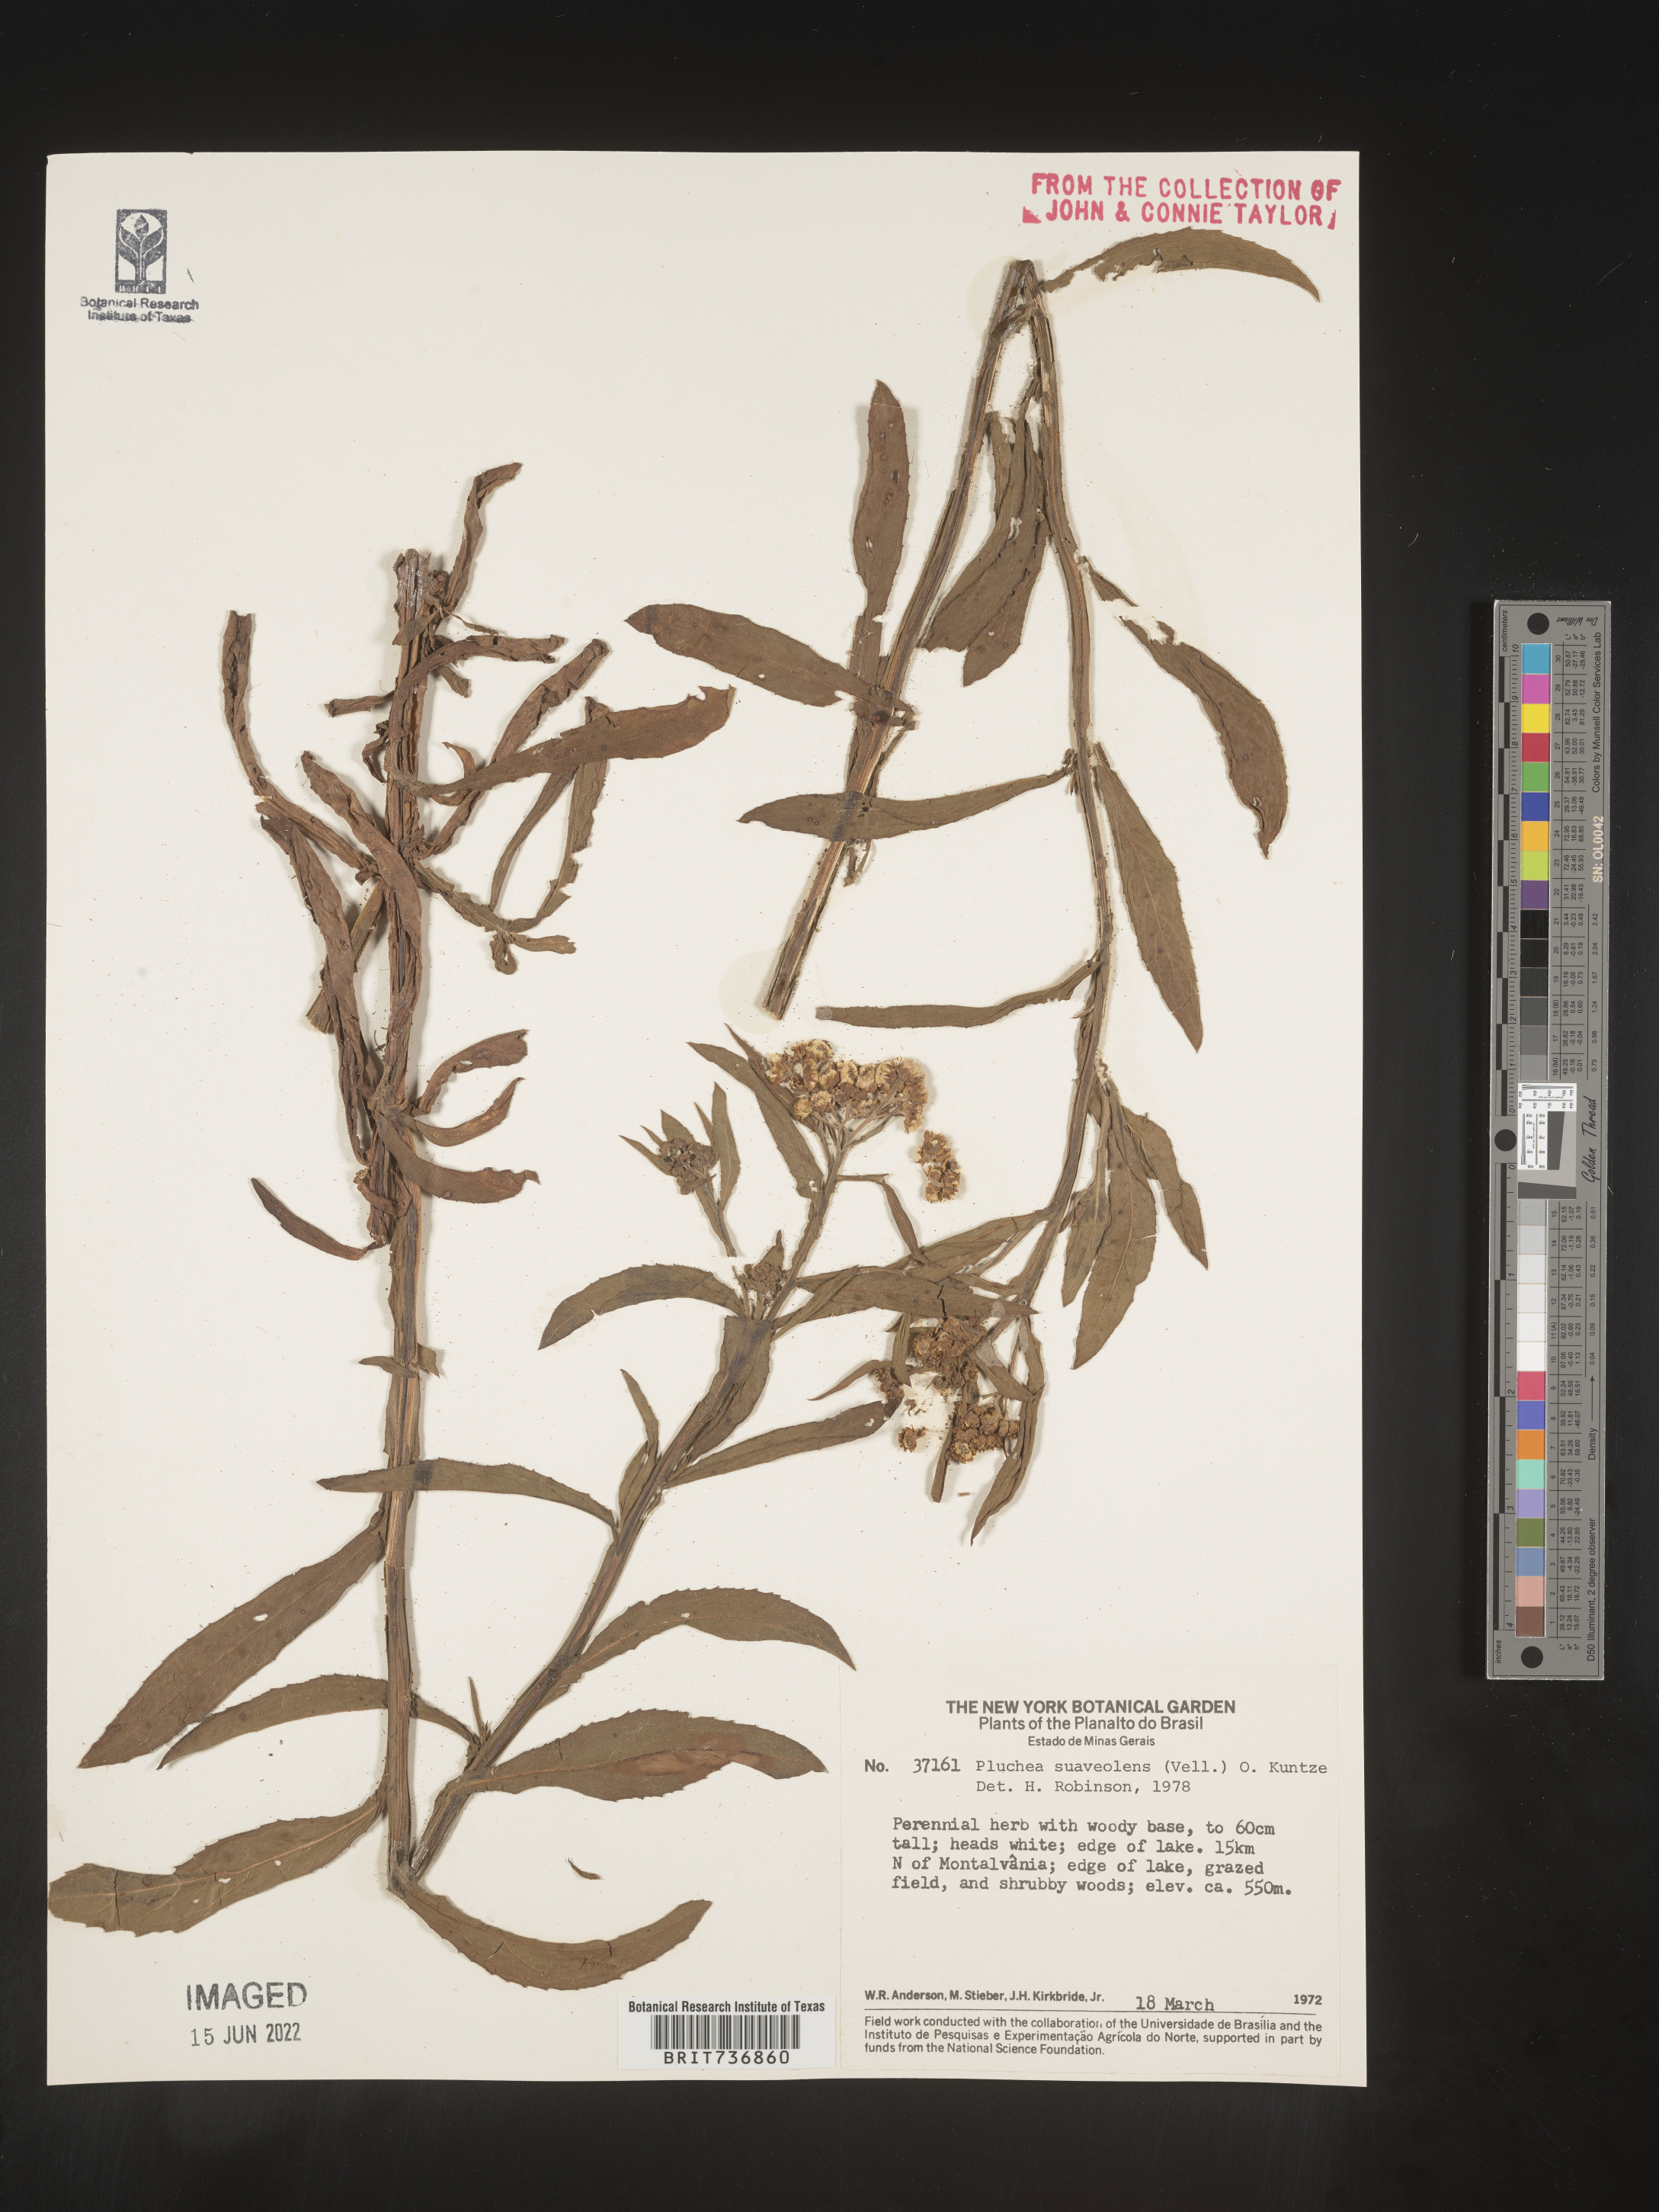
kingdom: Plantae
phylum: Tracheophyta
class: Magnoliopsida
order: Asterales
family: Asteraceae
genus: Pluchea
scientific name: Pluchea
